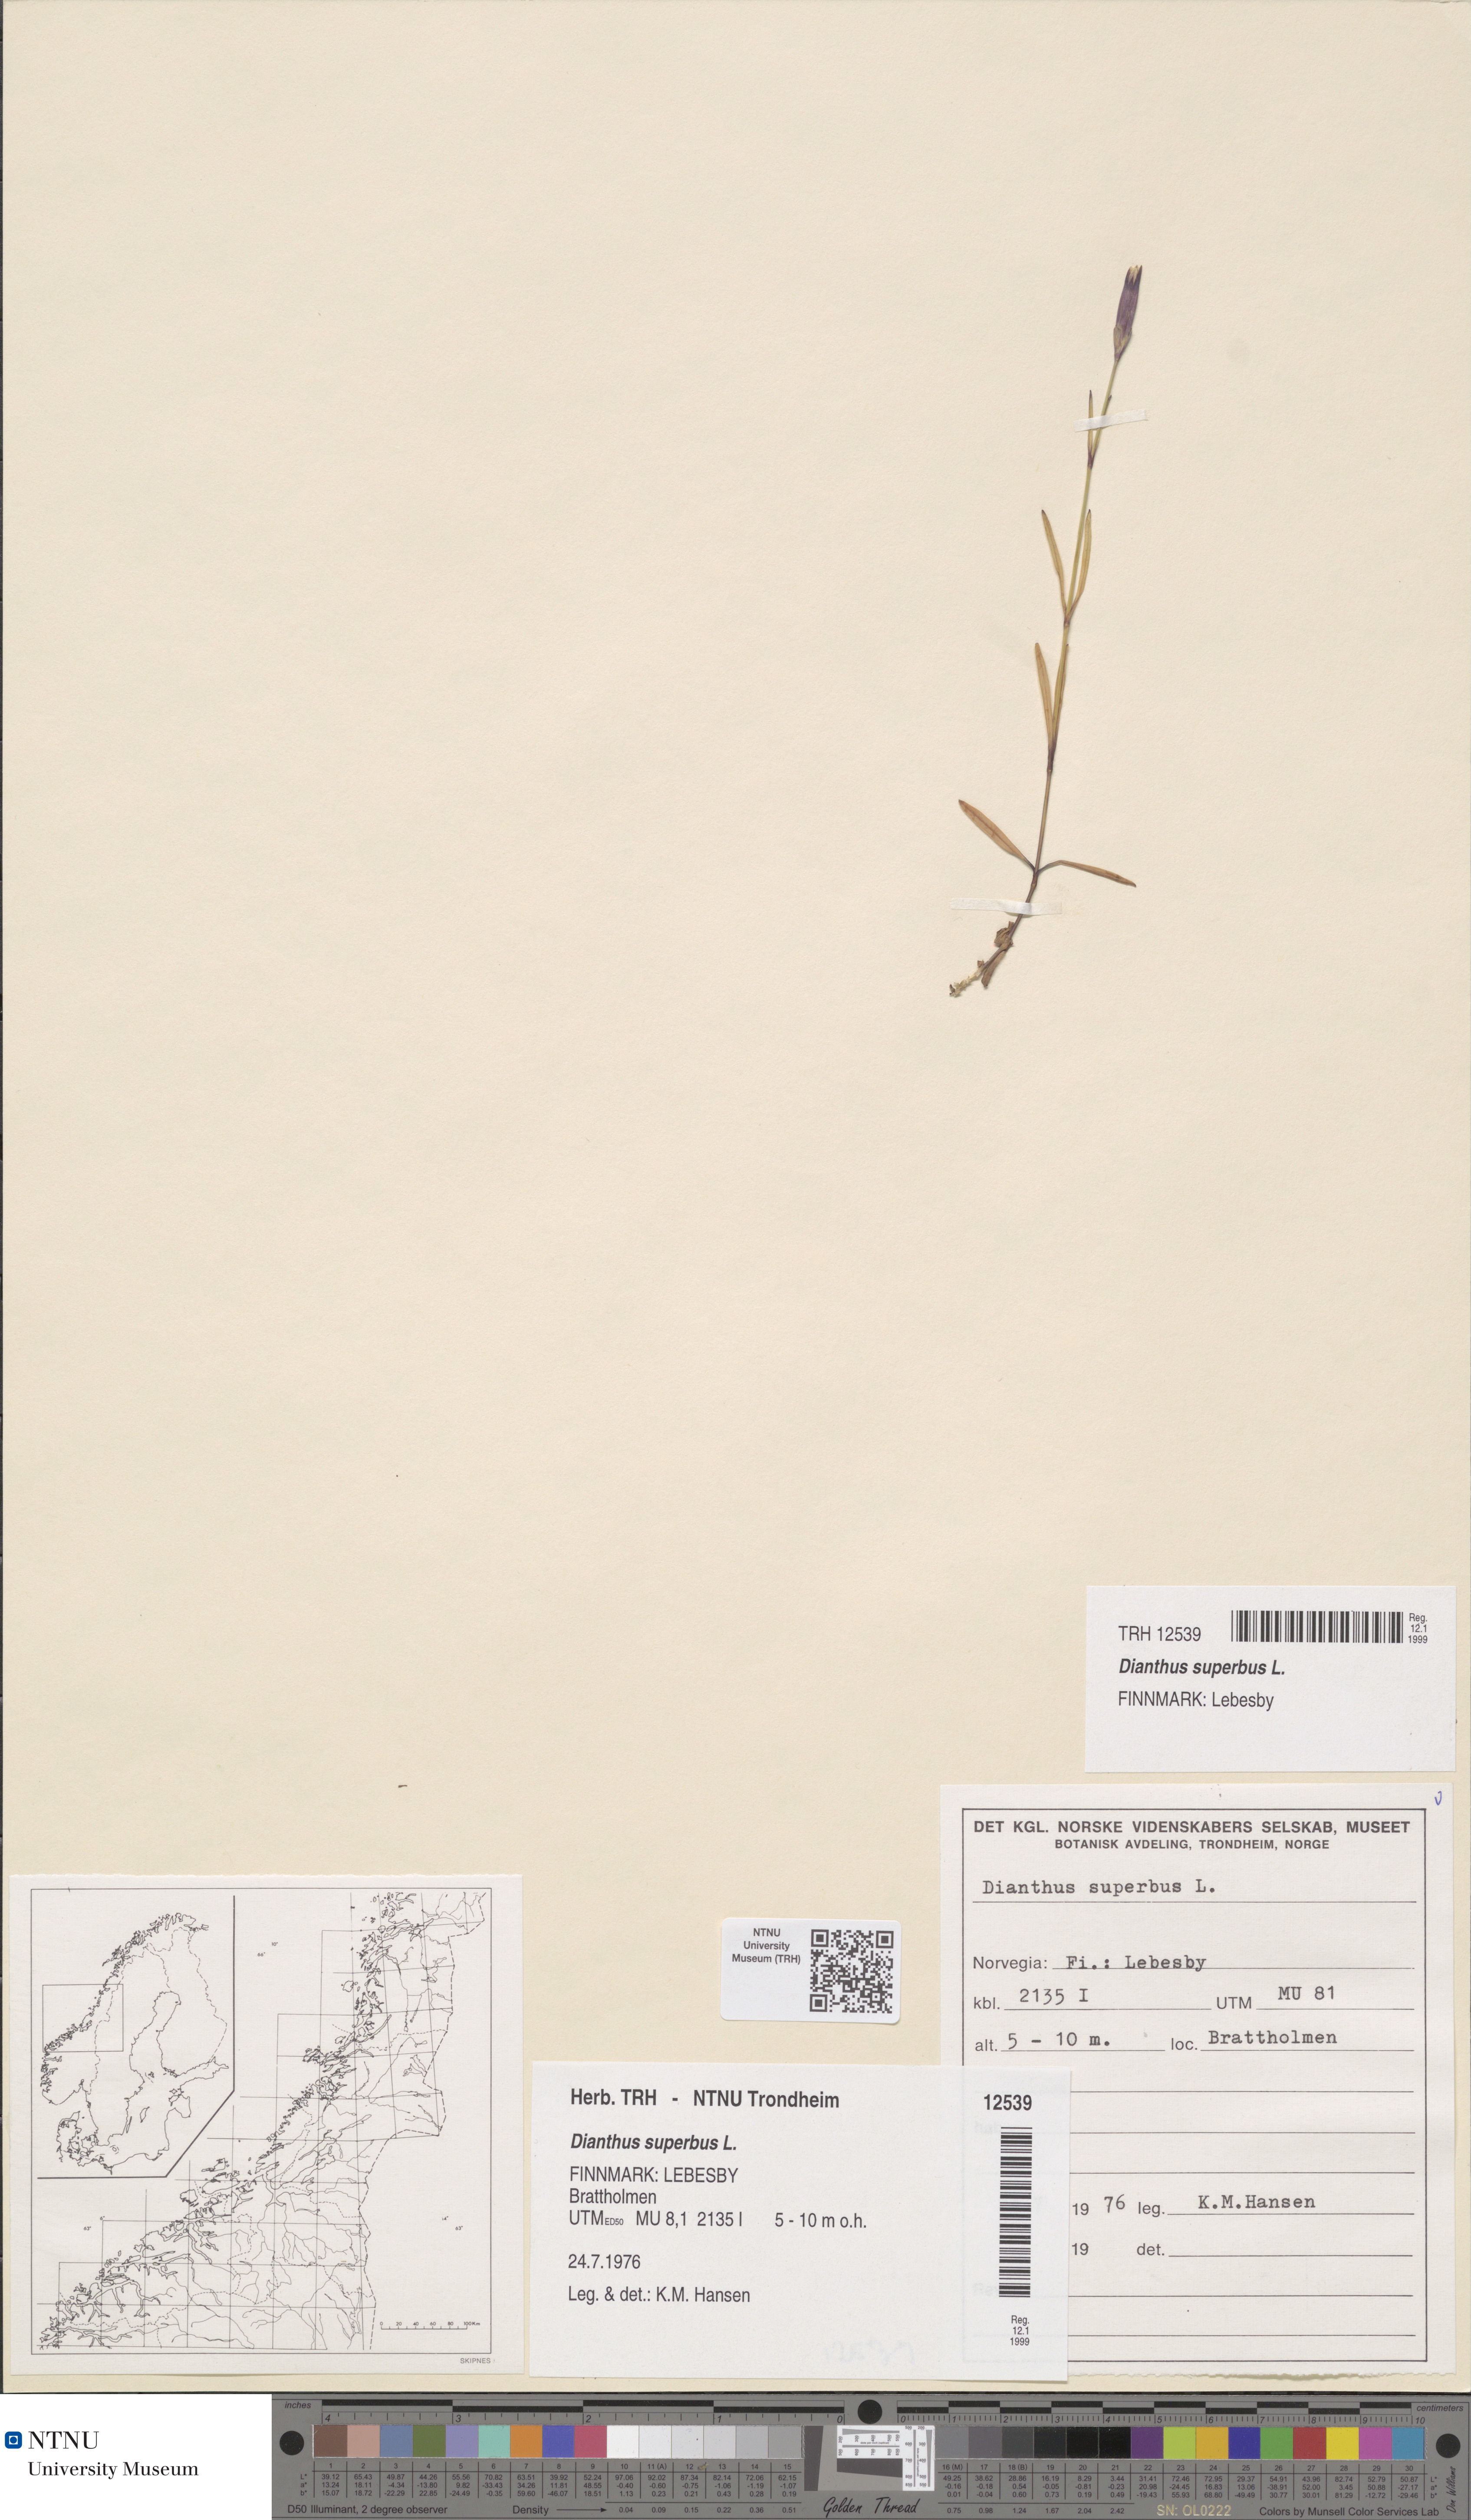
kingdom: Plantae
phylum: Tracheophyta
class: Magnoliopsida
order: Caryophyllales
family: Caryophyllaceae
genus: Dianthus
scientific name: Dianthus superbus
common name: Fringed pink
